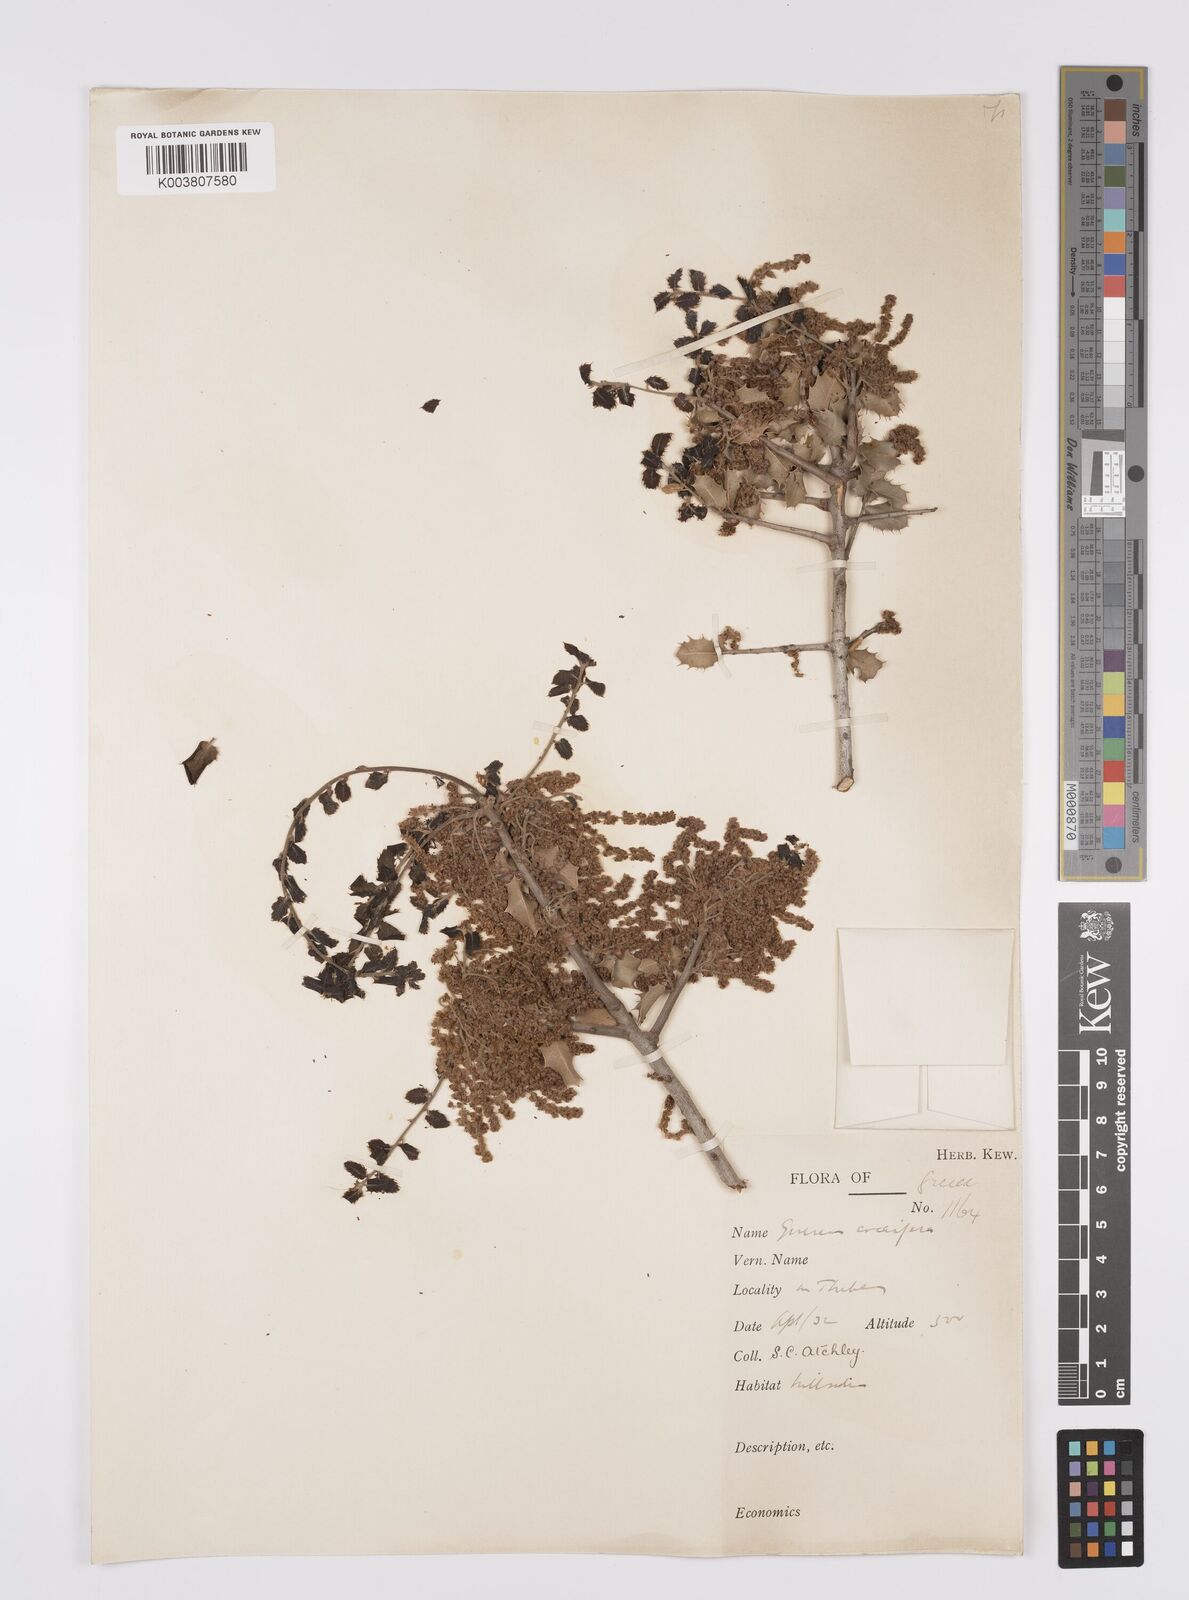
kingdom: Plantae
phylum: Tracheophyta
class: Magnoliopsida
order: Fagales
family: Fagaceae
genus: Quercus
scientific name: Quercus coccifera
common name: Kermes oak
